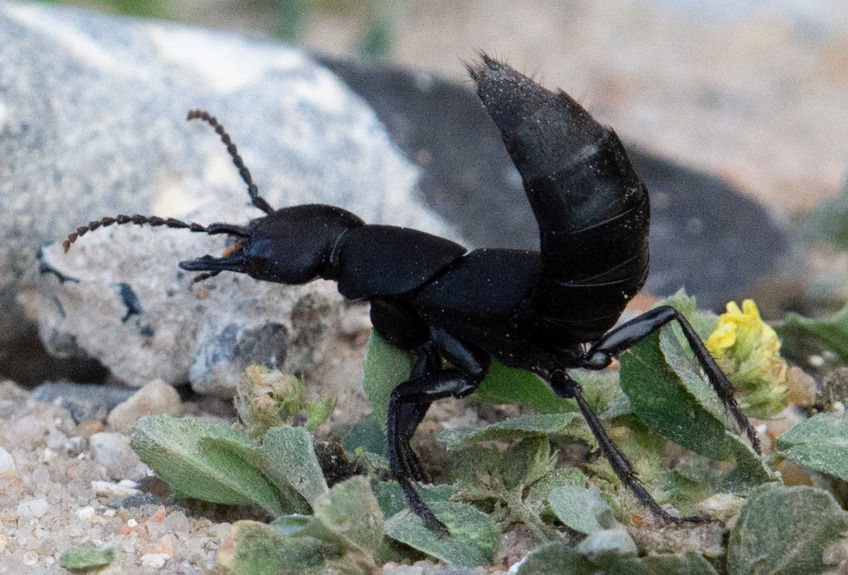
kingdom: Animalia
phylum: Arthropoda
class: Insecta
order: Coleoptera
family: Staphylinidae
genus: Ocypus
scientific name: Ocypus olens
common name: Stor rovbille
